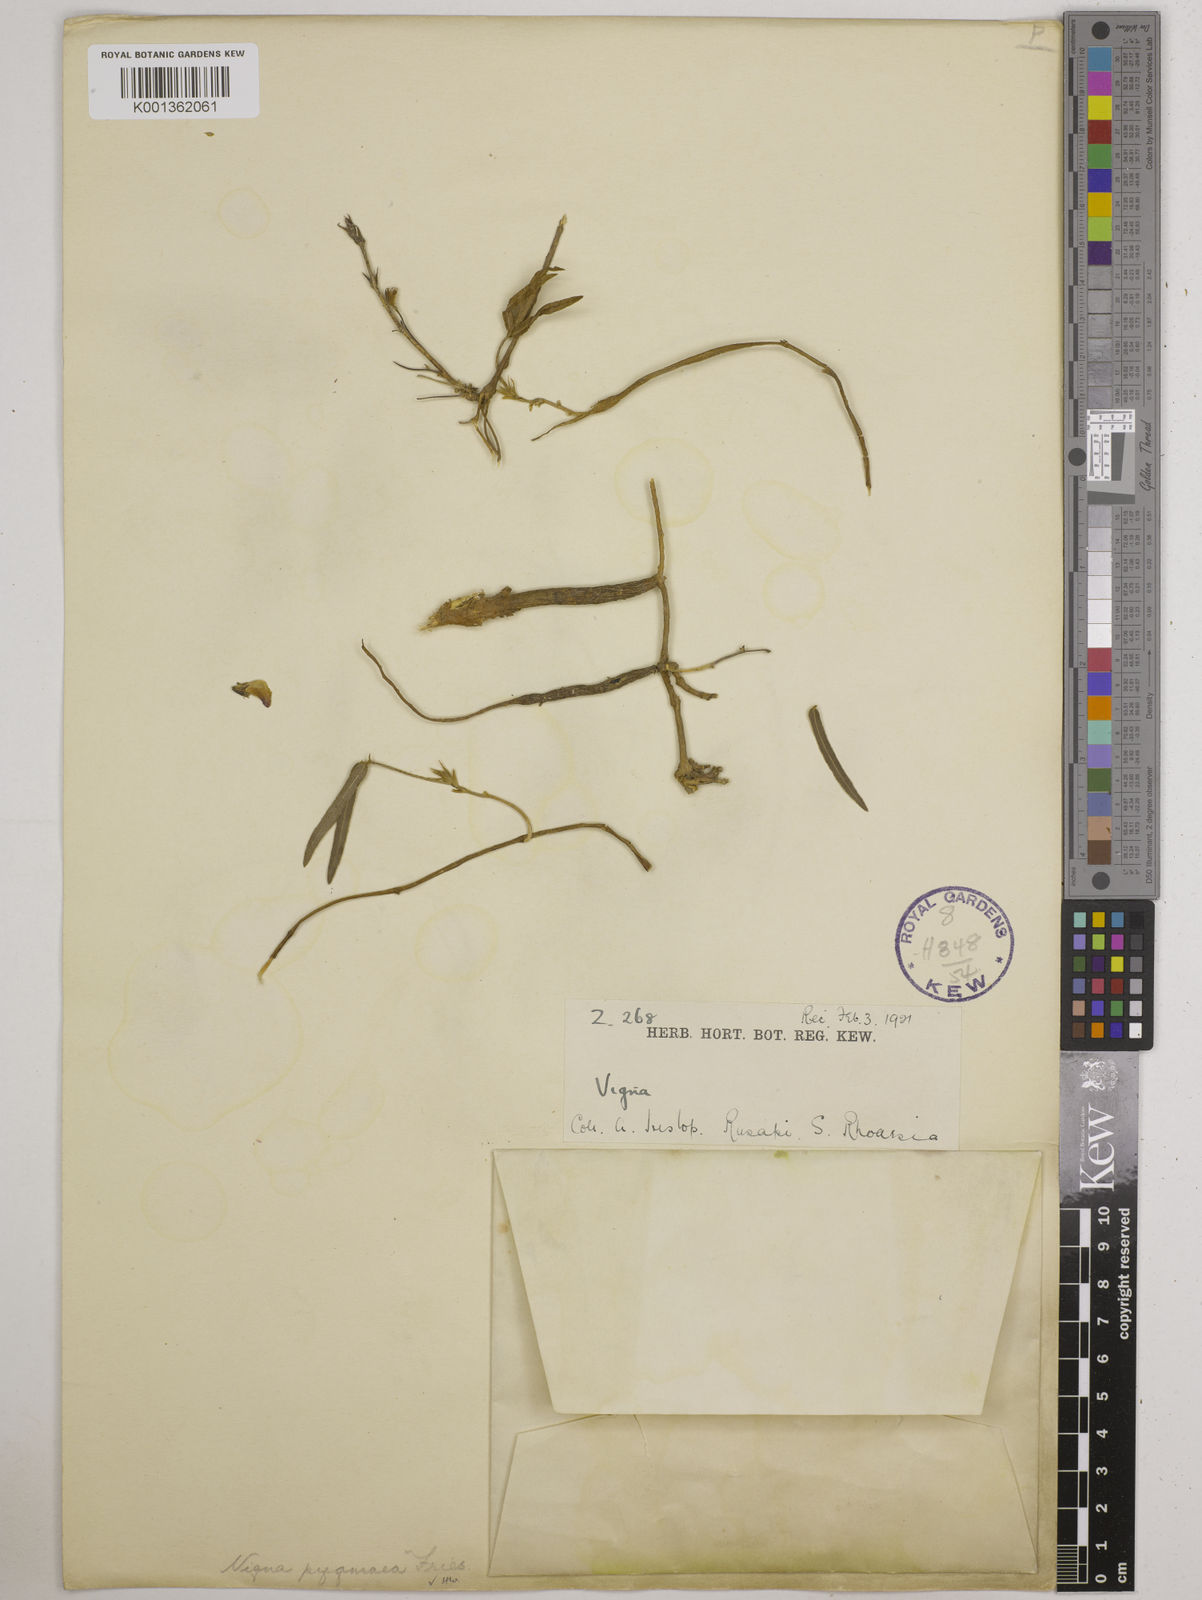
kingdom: Plantae
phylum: Tracheophyta
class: Magnoliopsida
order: Fabales
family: Fabaceae
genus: Vigna
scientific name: Vigna pygmaea
